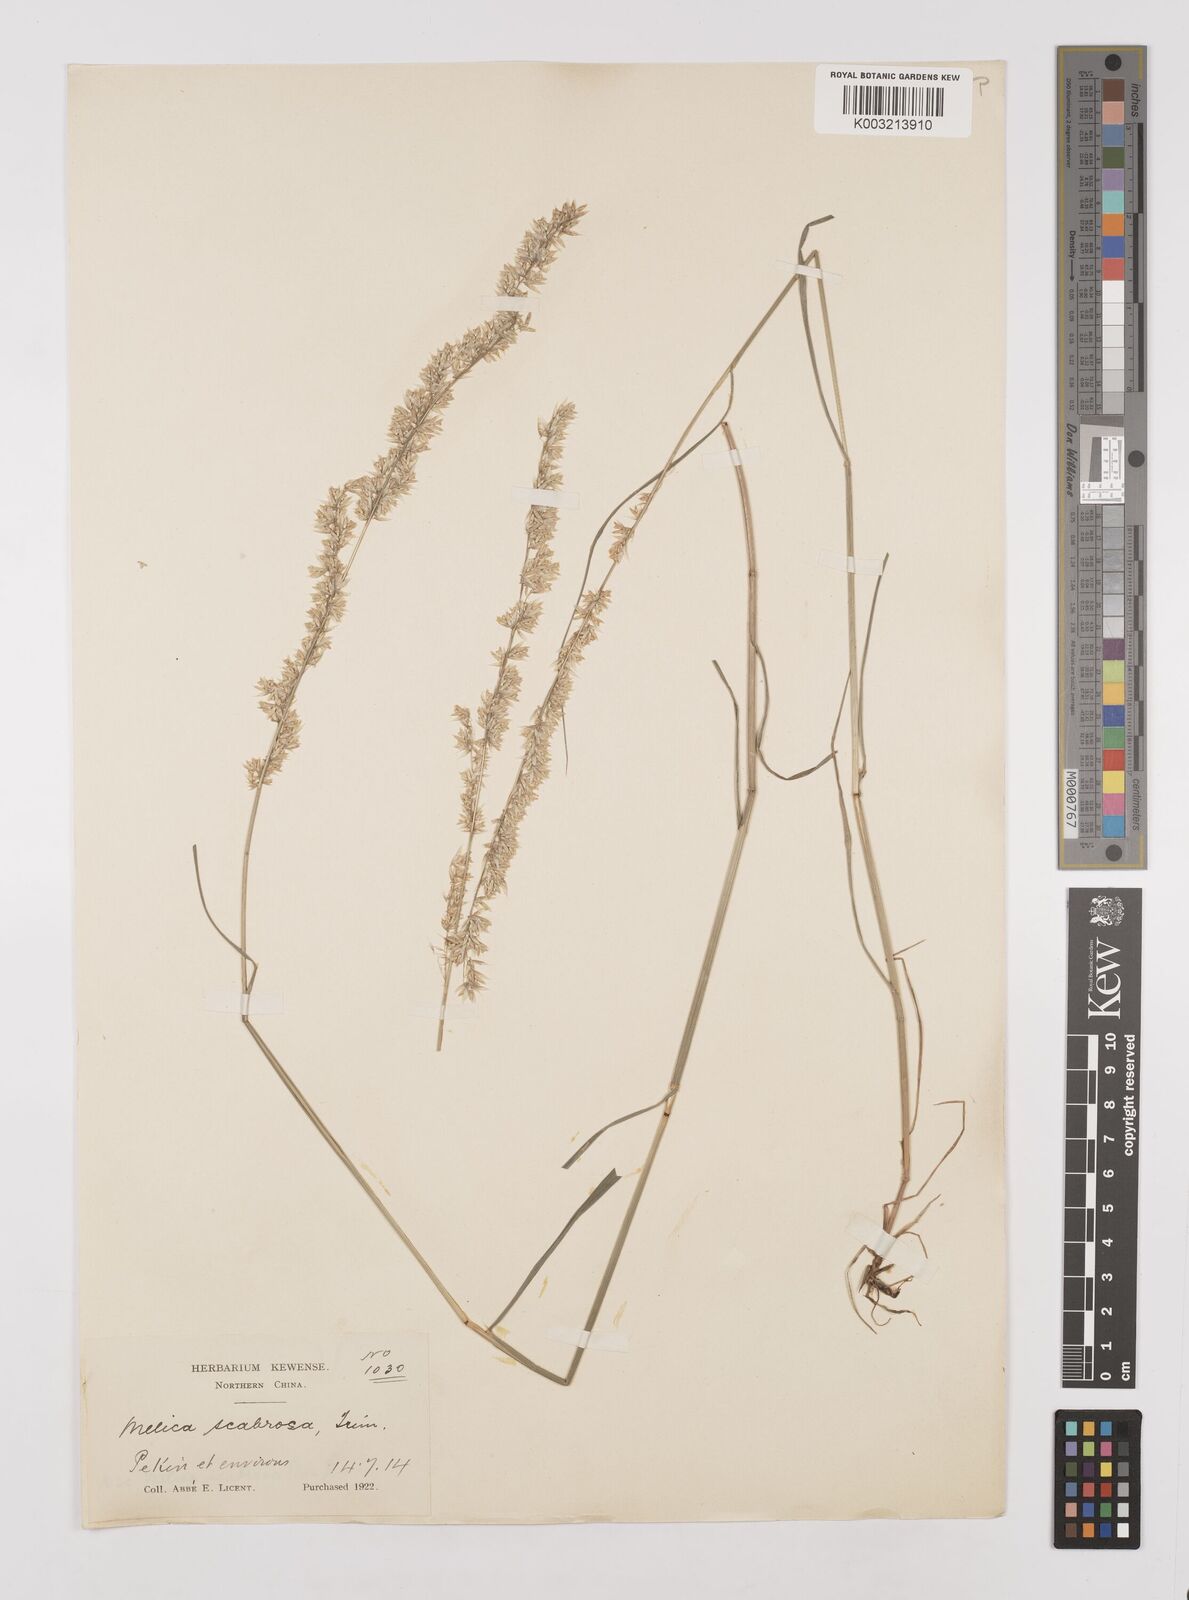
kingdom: Plantae
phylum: Tracheophyta
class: Liliopsida
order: Poales
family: Poaceae
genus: Melica
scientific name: Melica scabrosa
